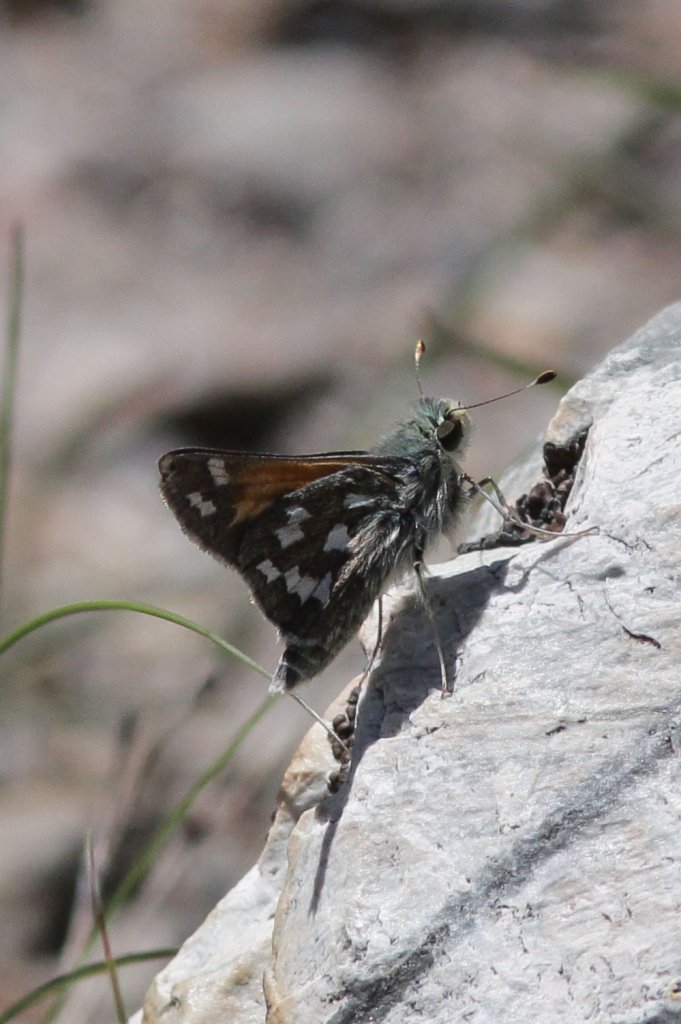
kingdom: Animalia
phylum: Arthropoda
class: Insecta
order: Lepidoptera
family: Hesperiidae
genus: Hesperia
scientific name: Hesperia juba
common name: Juba Skipper
